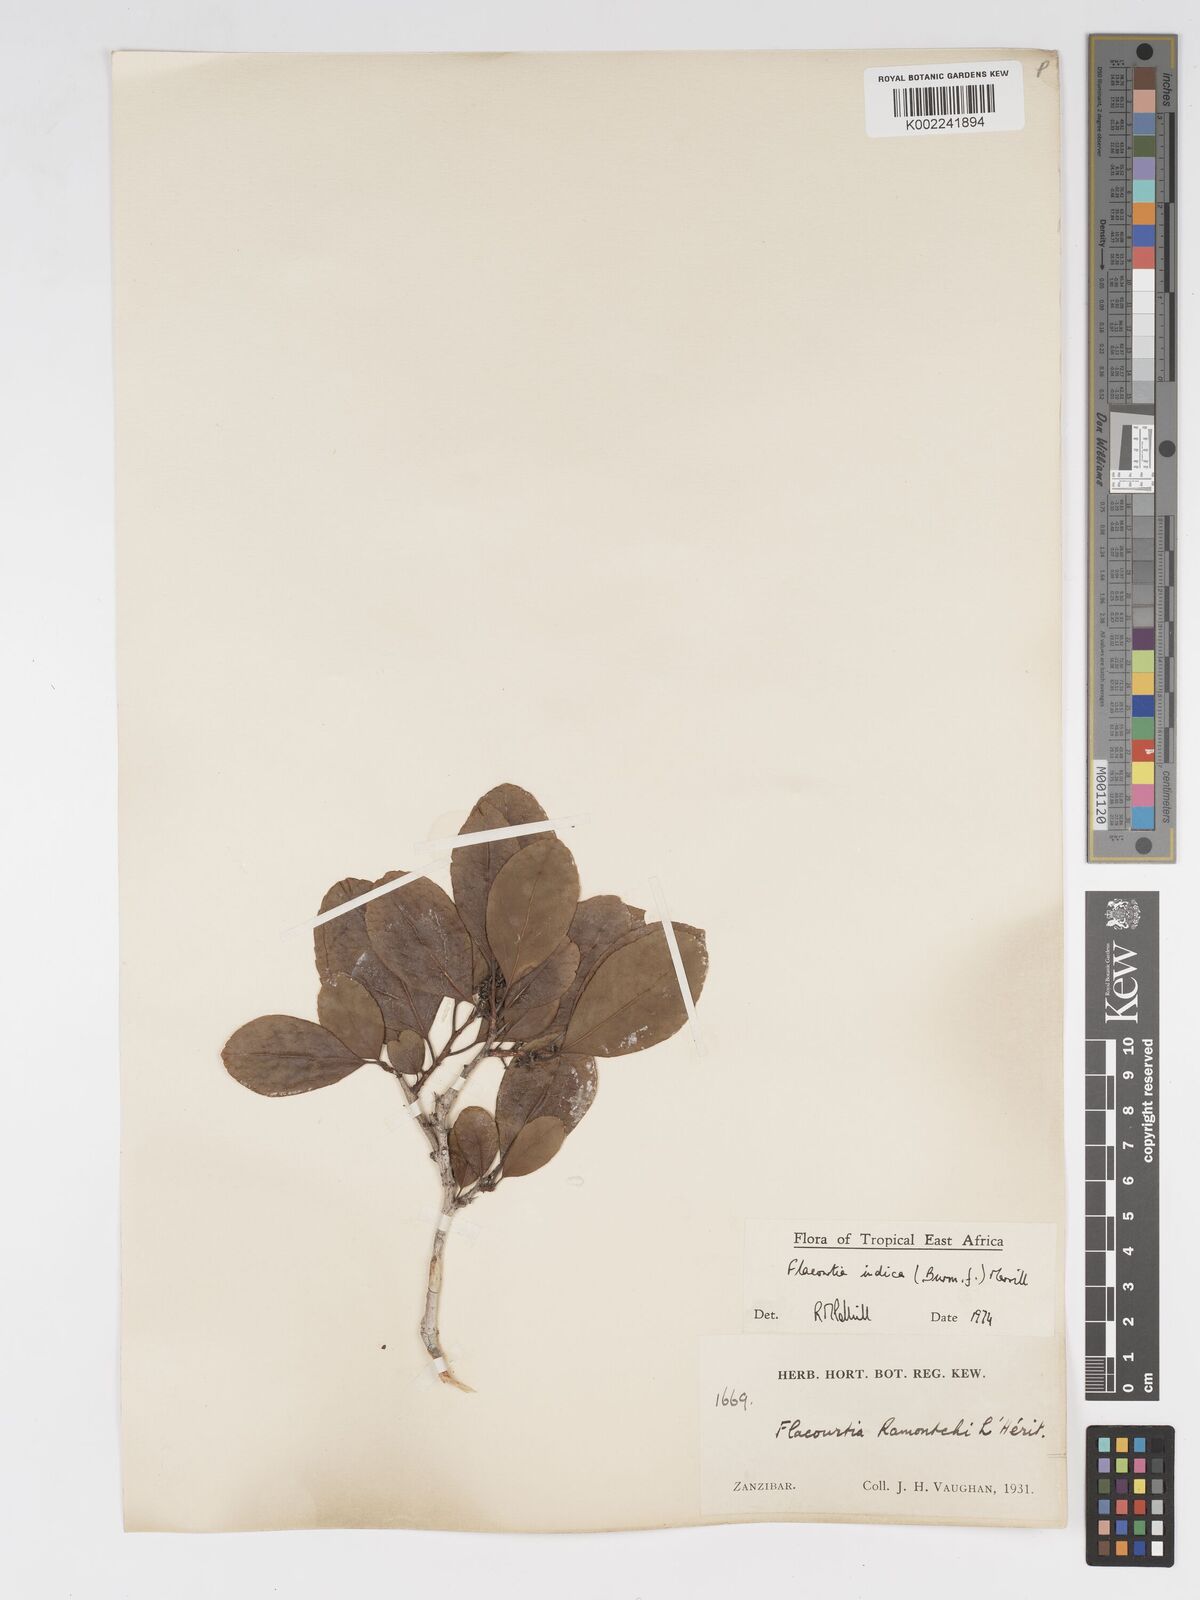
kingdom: Plantae
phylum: Tracheophyta
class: Magnoliopsida
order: Malpighiales
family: Salicaceae
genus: Flacourtia
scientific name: Flacourtia indica
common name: Governor's plum
